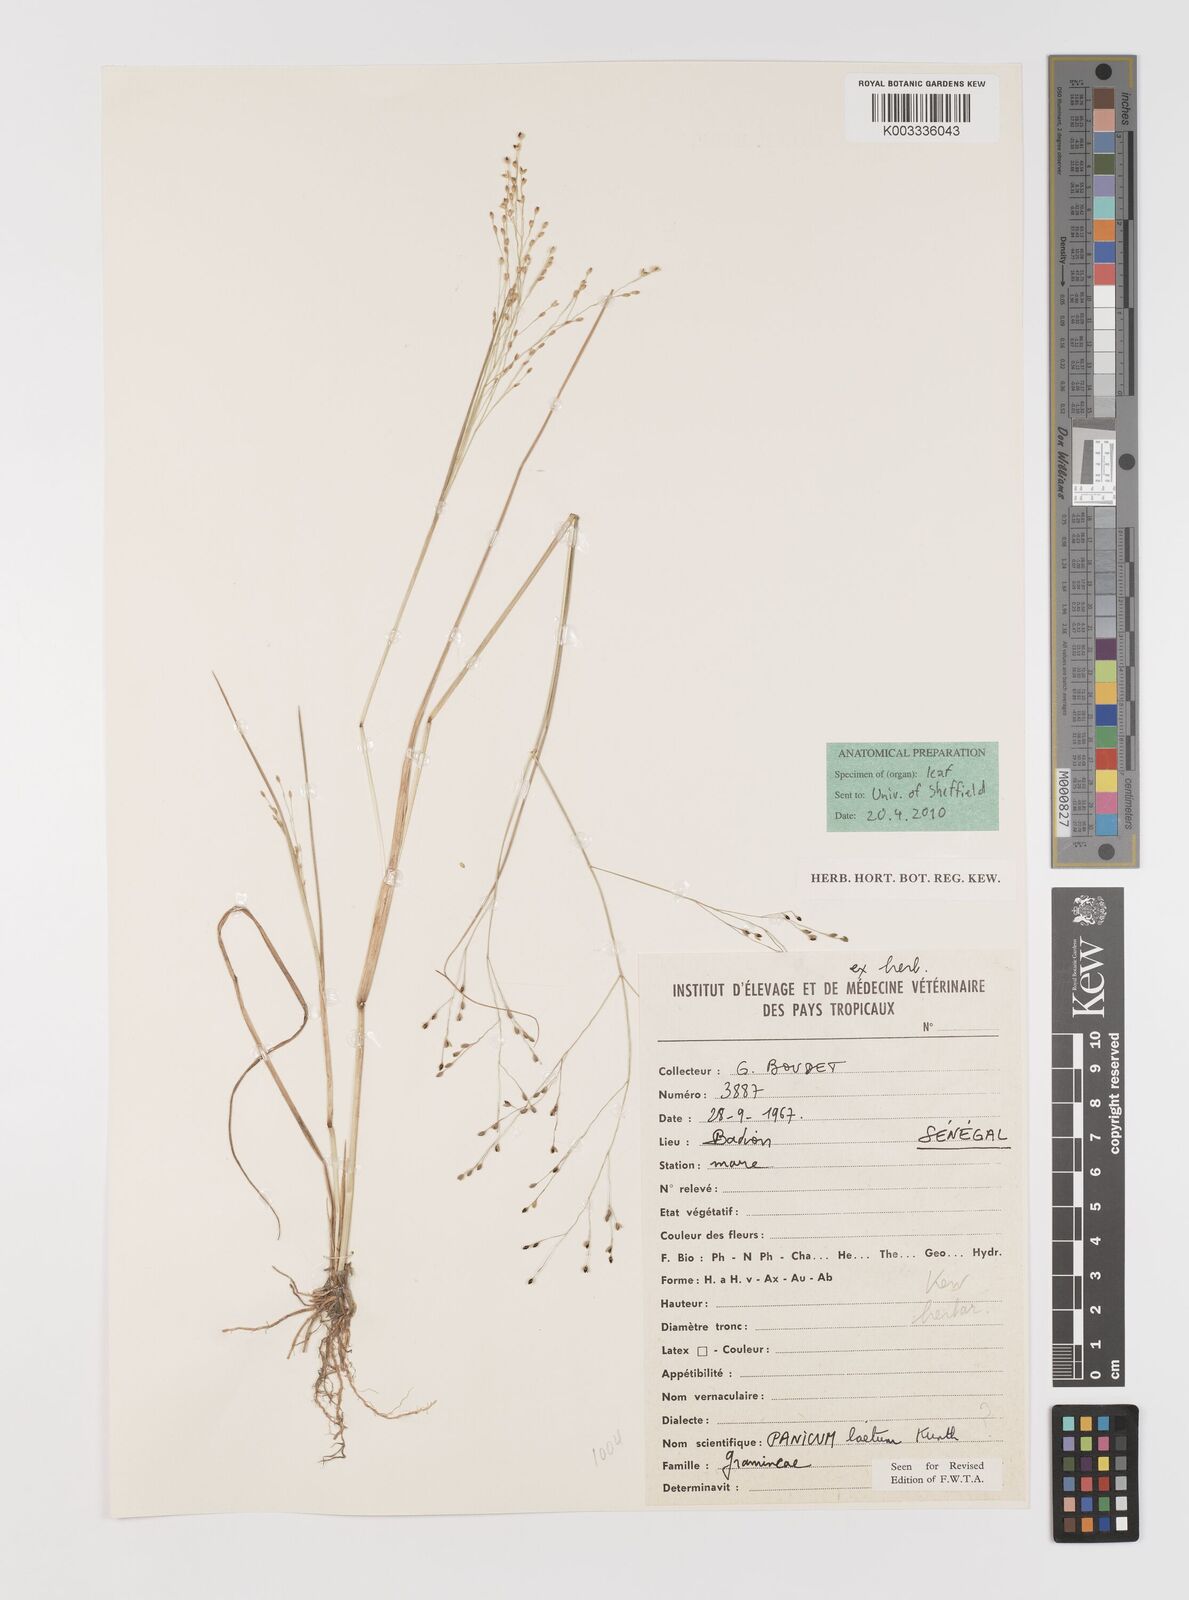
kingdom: Plantae
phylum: Tracheophyta
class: Liliopsida
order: Poales
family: Poaceae
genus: Panicum
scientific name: Panicum haplocaulos
